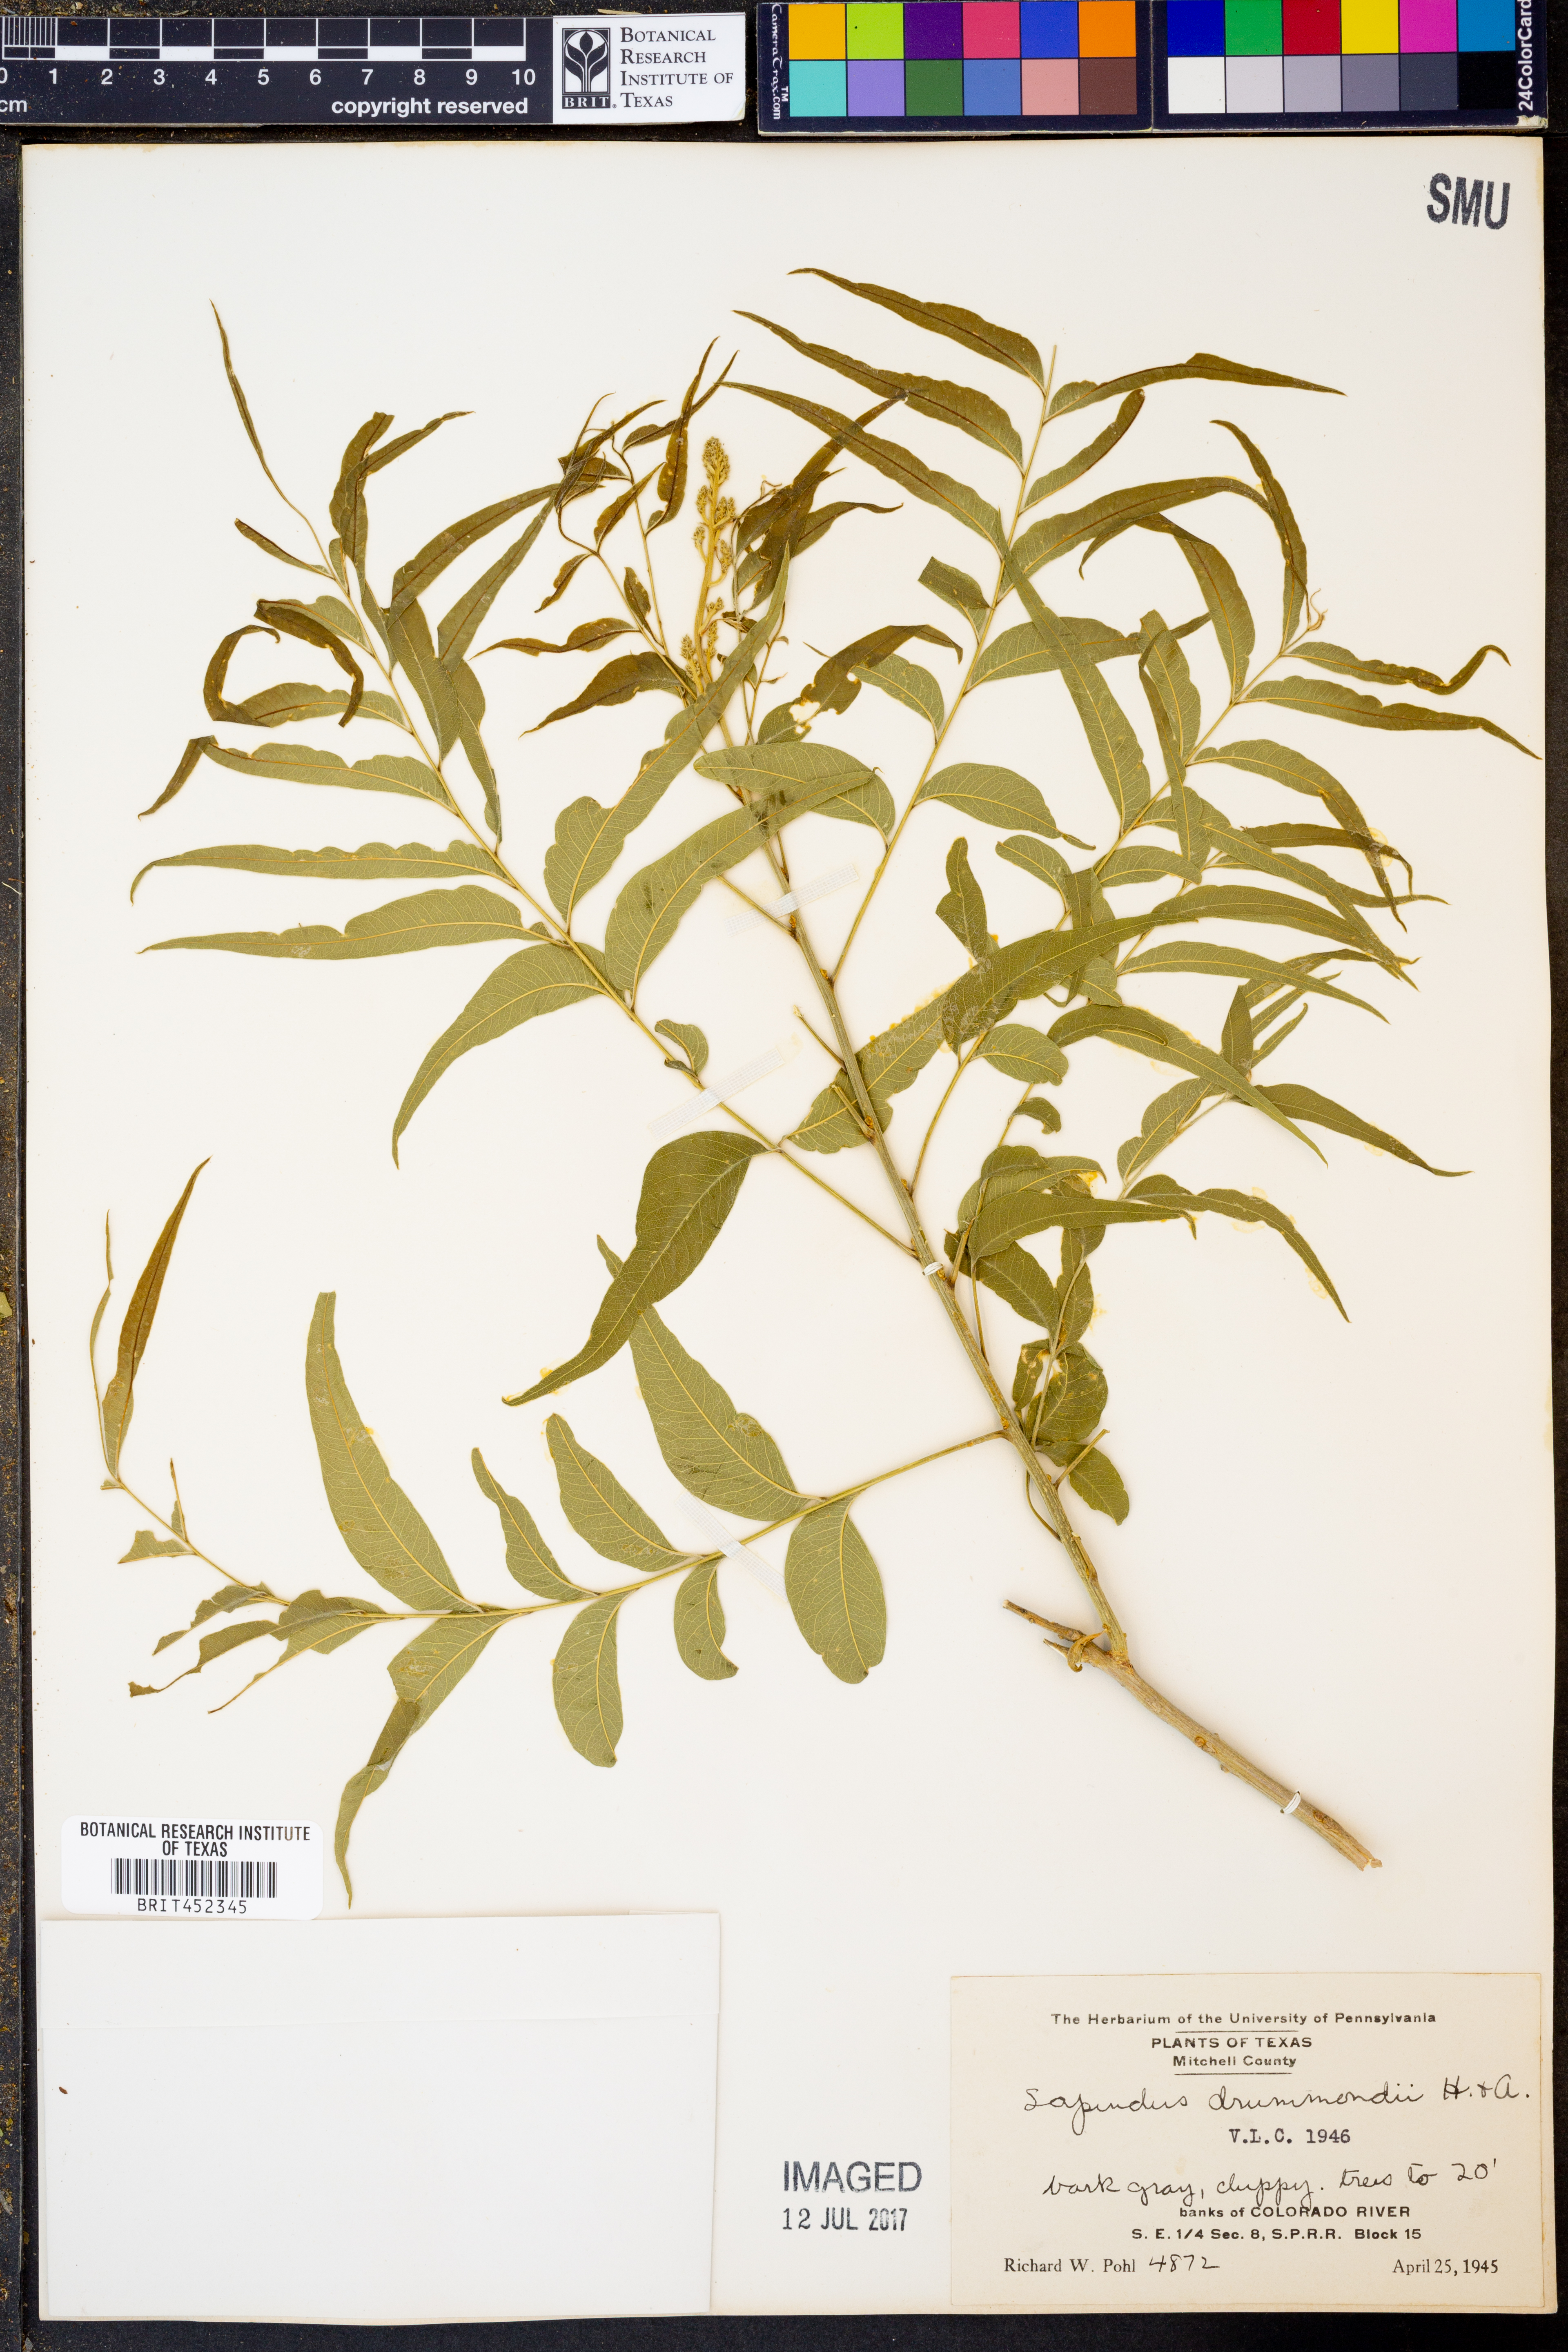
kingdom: Plantae
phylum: Tracheophyta
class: Magnoliopsida
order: Sapindales
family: Sapindaceae
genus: Sapindus
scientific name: Sapindus drummondii
